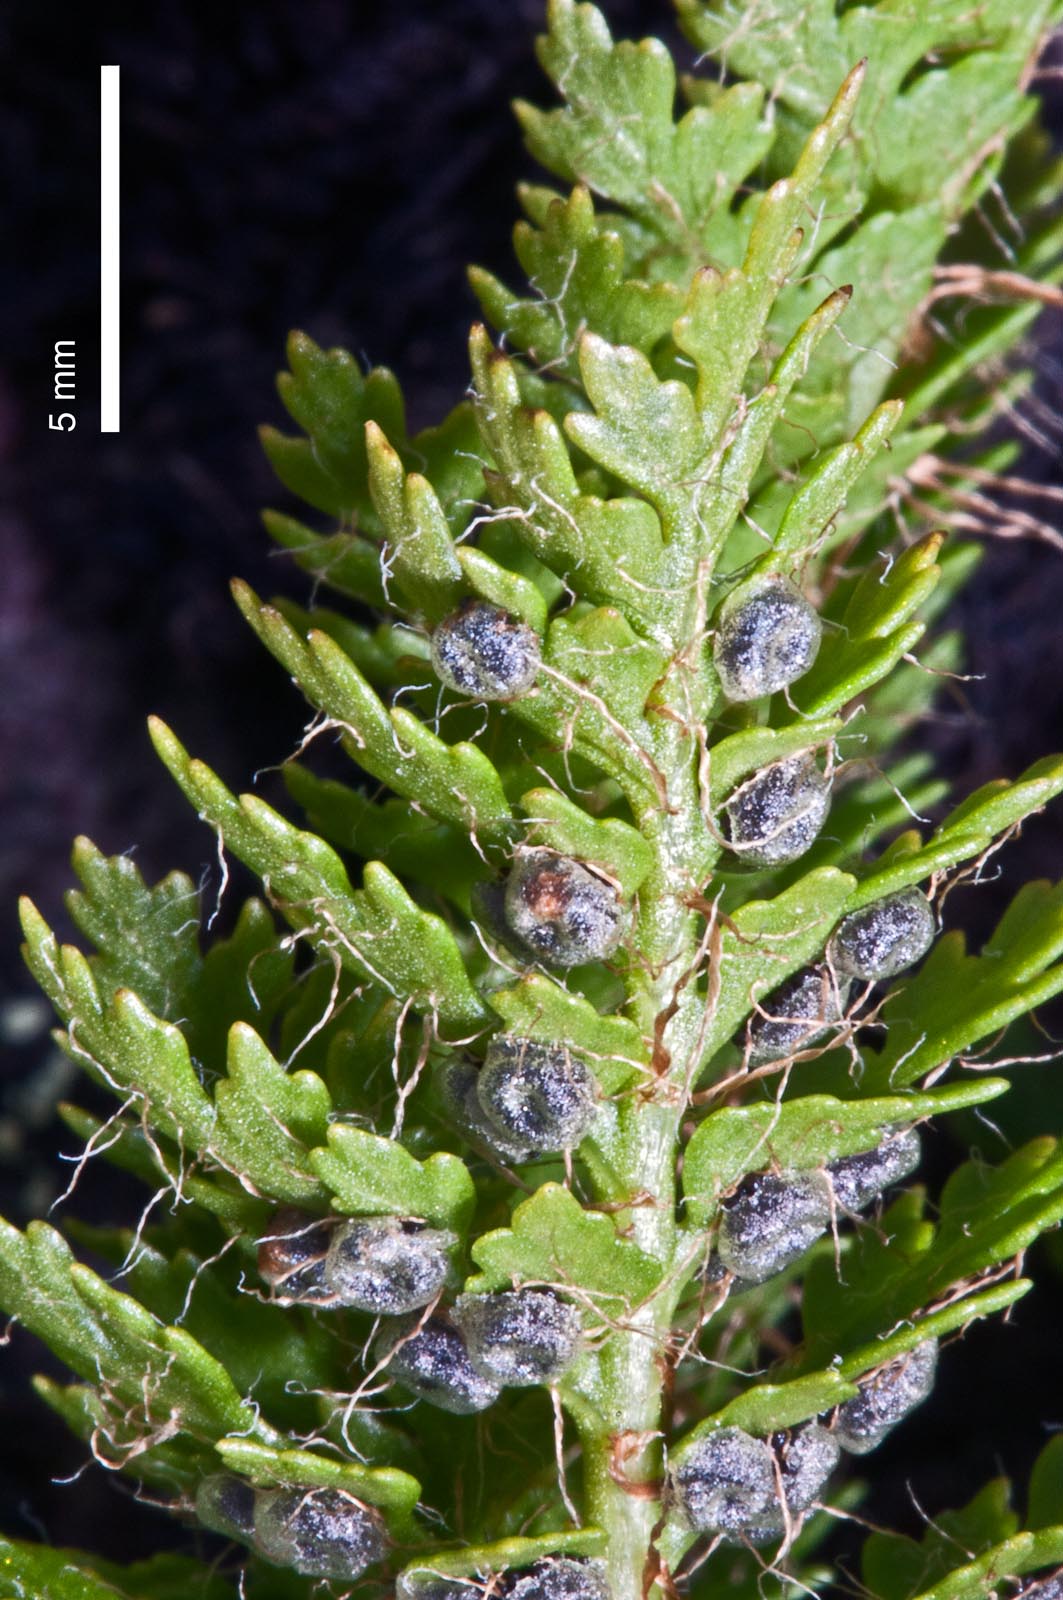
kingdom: Plantae
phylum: Tracheophyta
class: Polypodiopsida
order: Polypodiales
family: Dryopteridaceae
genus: Polystichum
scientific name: Polystichum cystostegia
